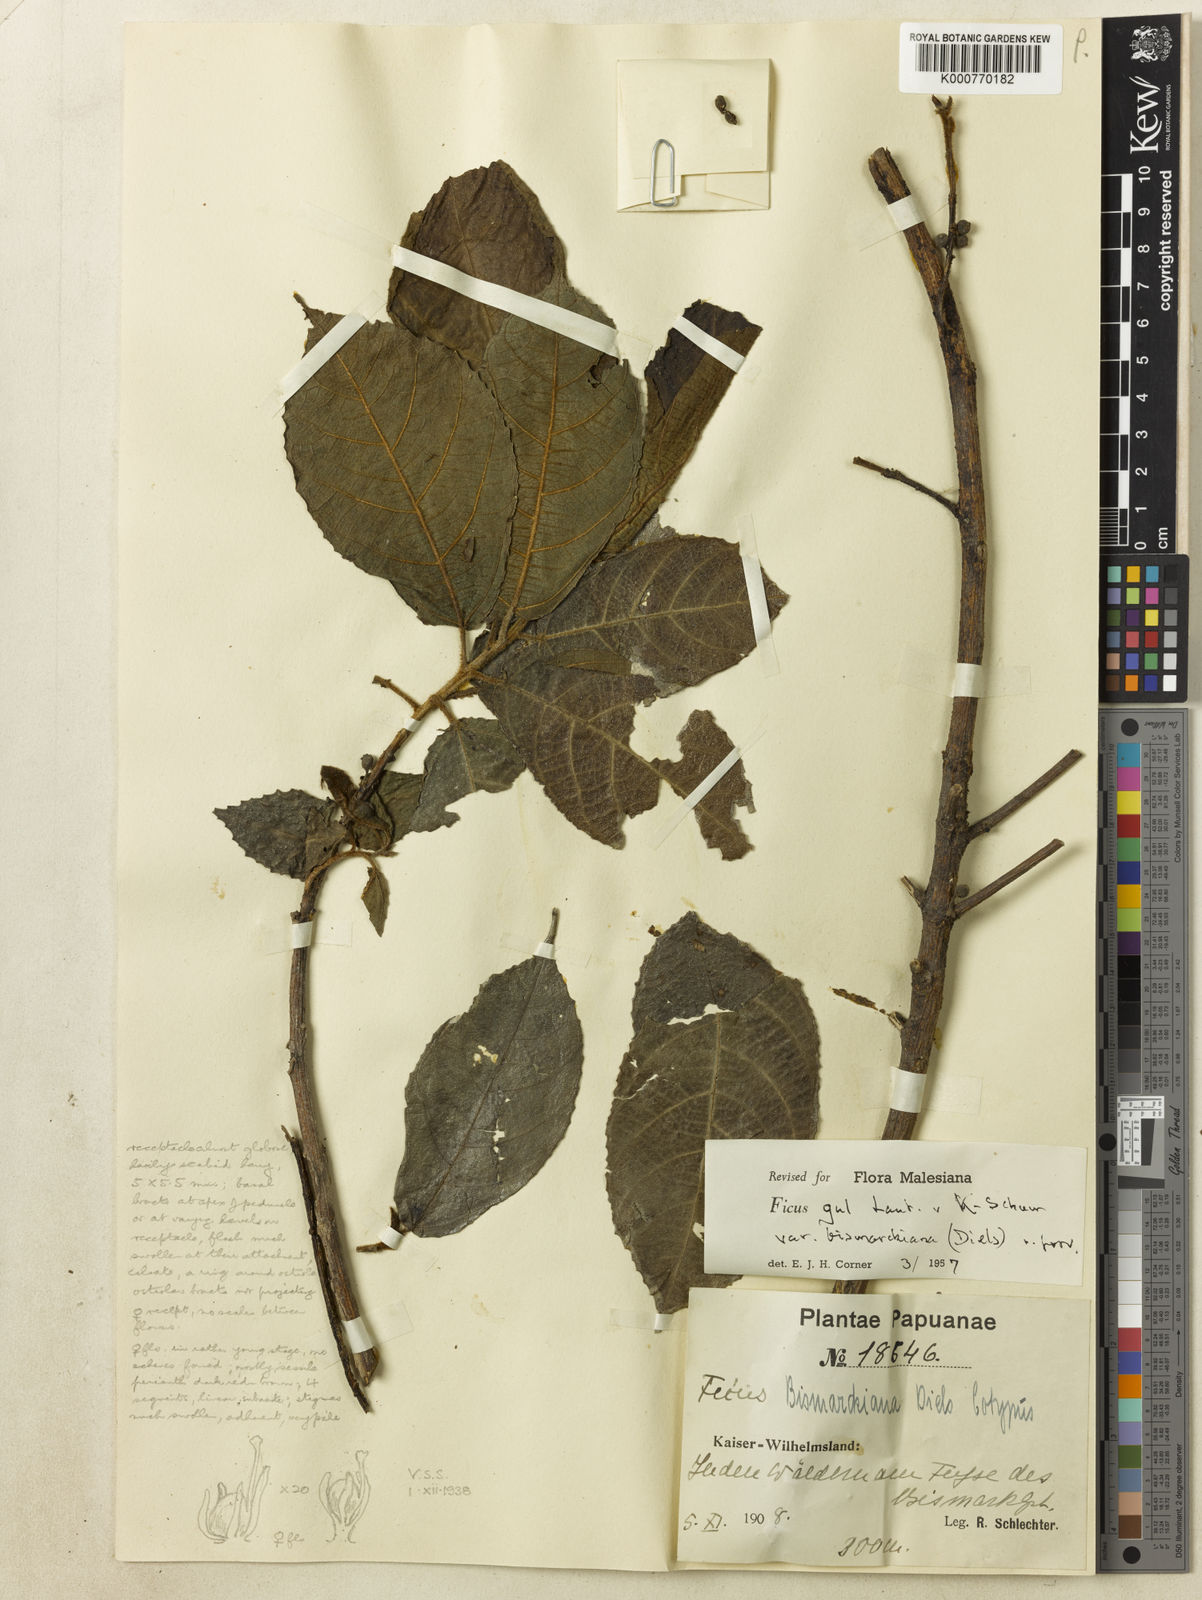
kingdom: Plantae
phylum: Tracheophyta
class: Magnoliopsida
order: Rosales
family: Moraceae
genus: Ficus
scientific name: Ficus gul
